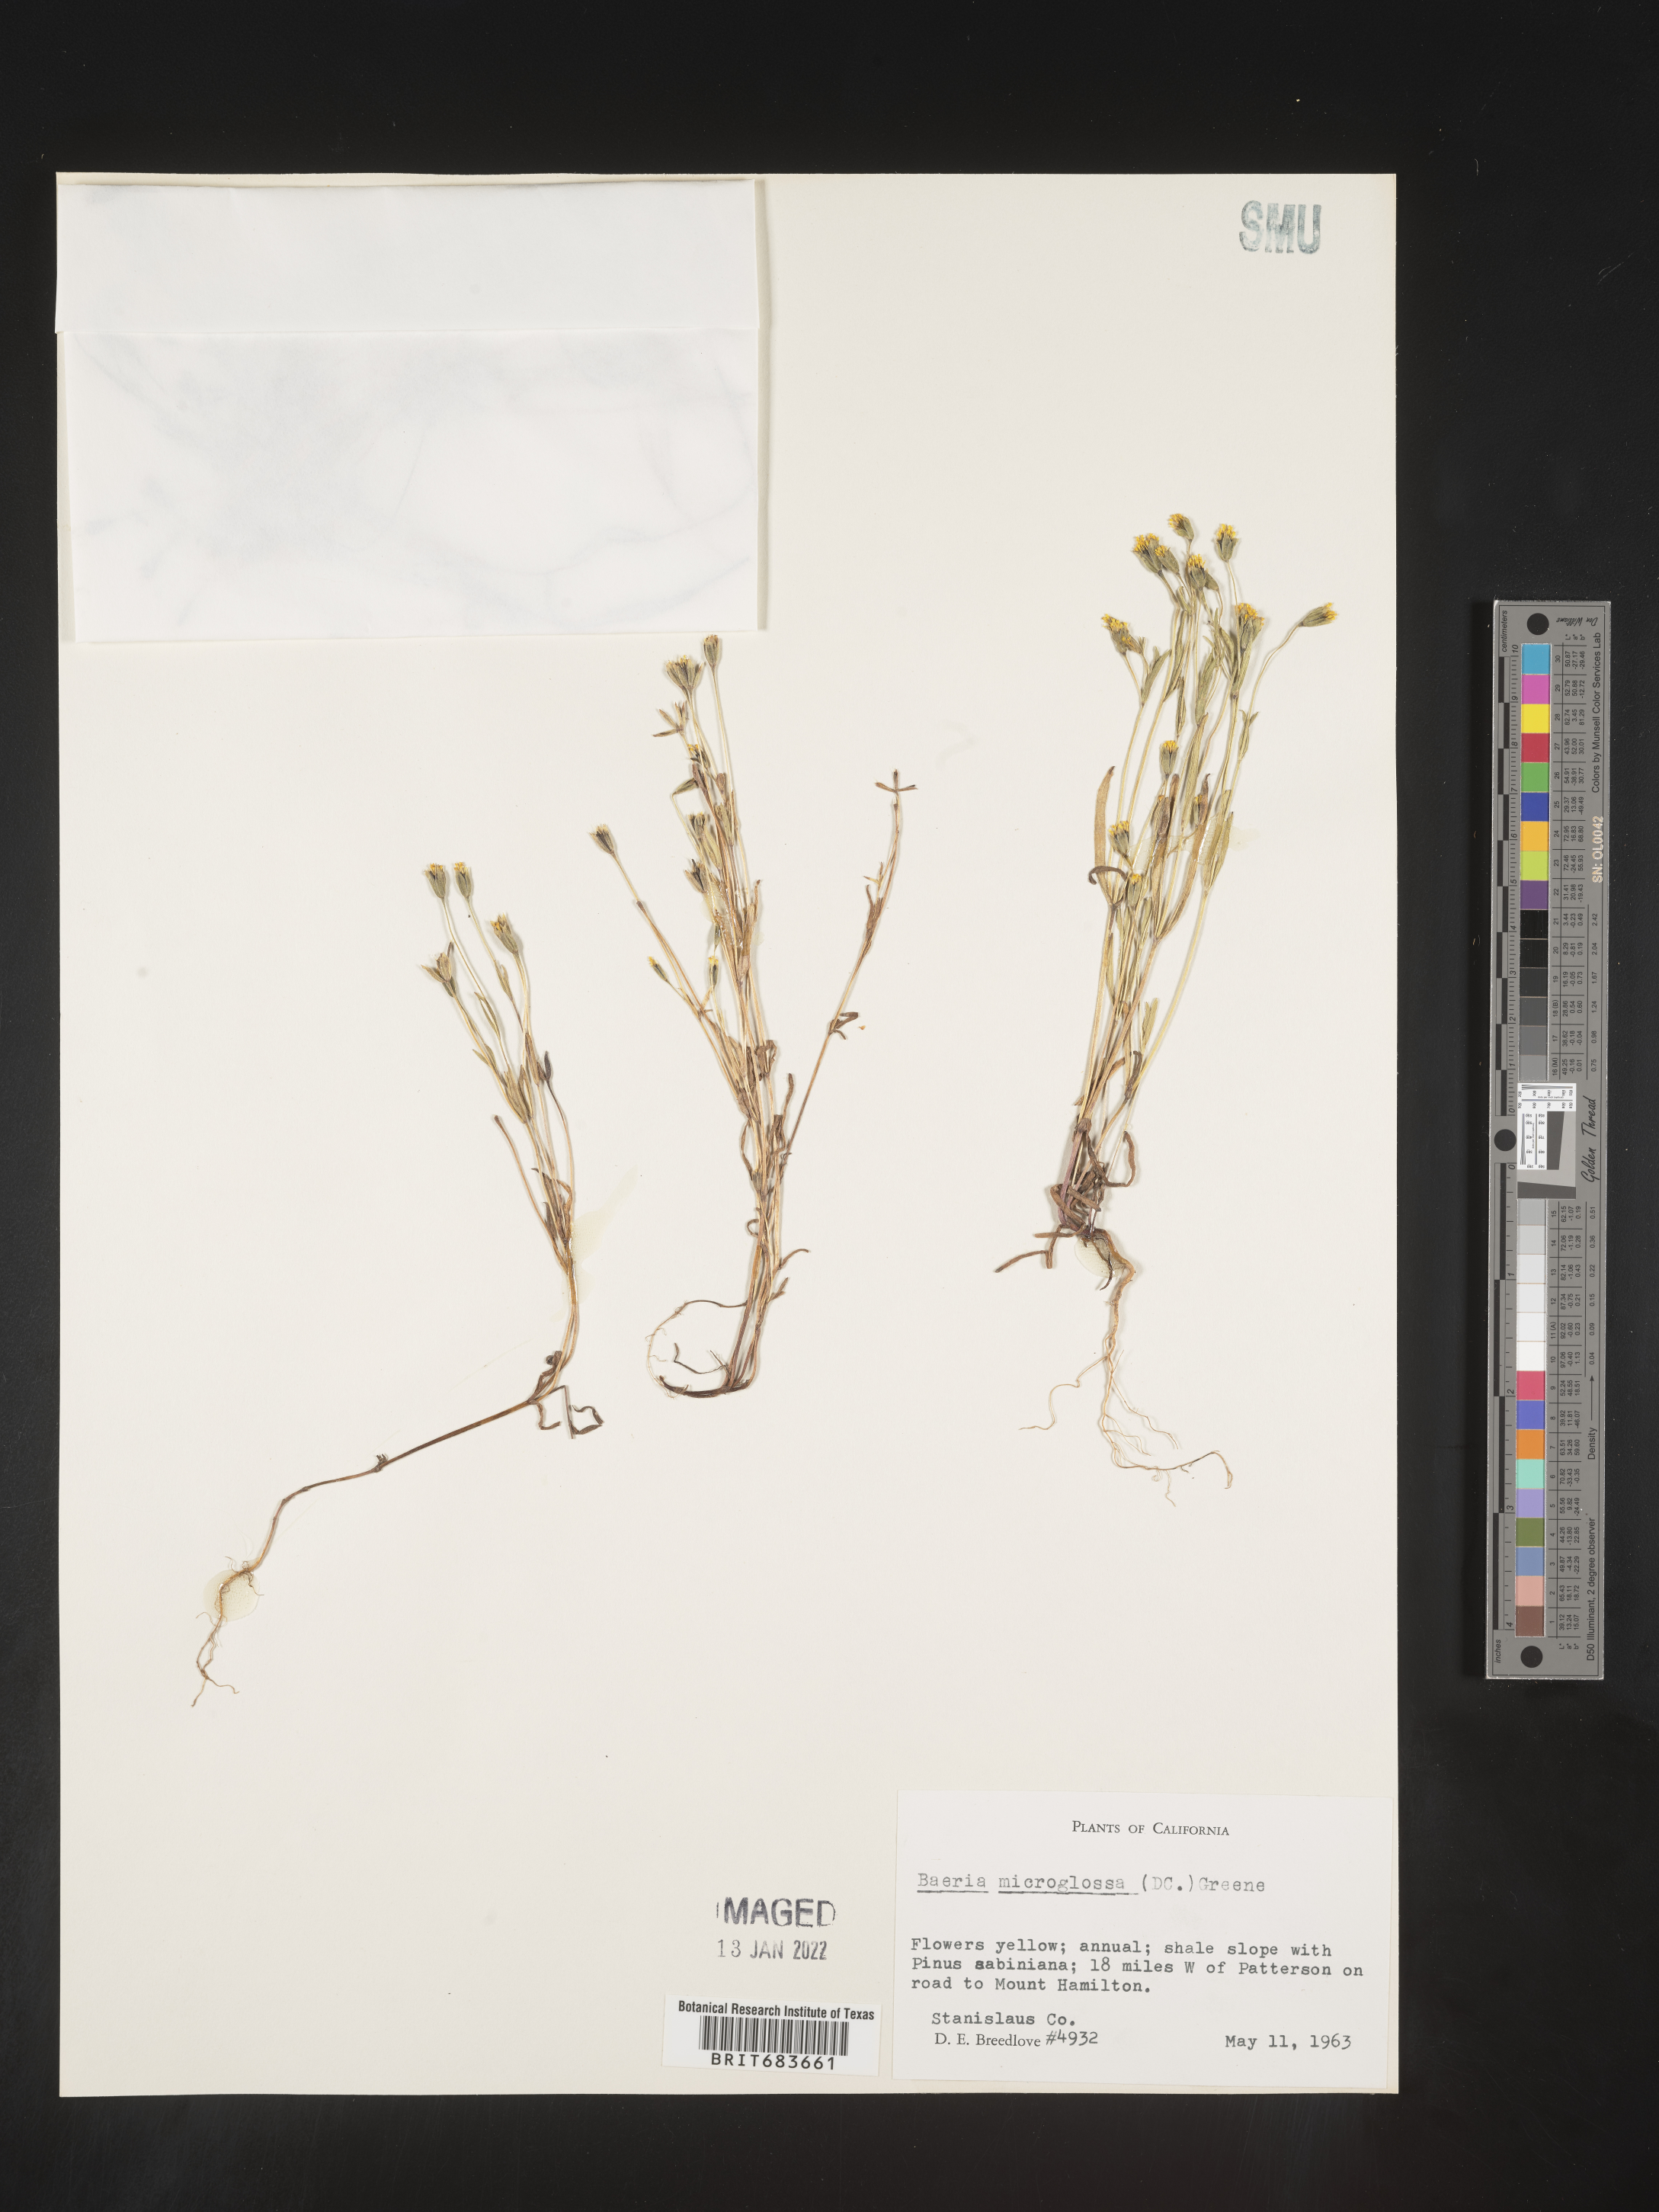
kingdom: Plantae
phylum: Tracheophyta
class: Magnoliopsida
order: Asterales
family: Asteraceae
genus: Lasthenia
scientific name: Lasthenia
